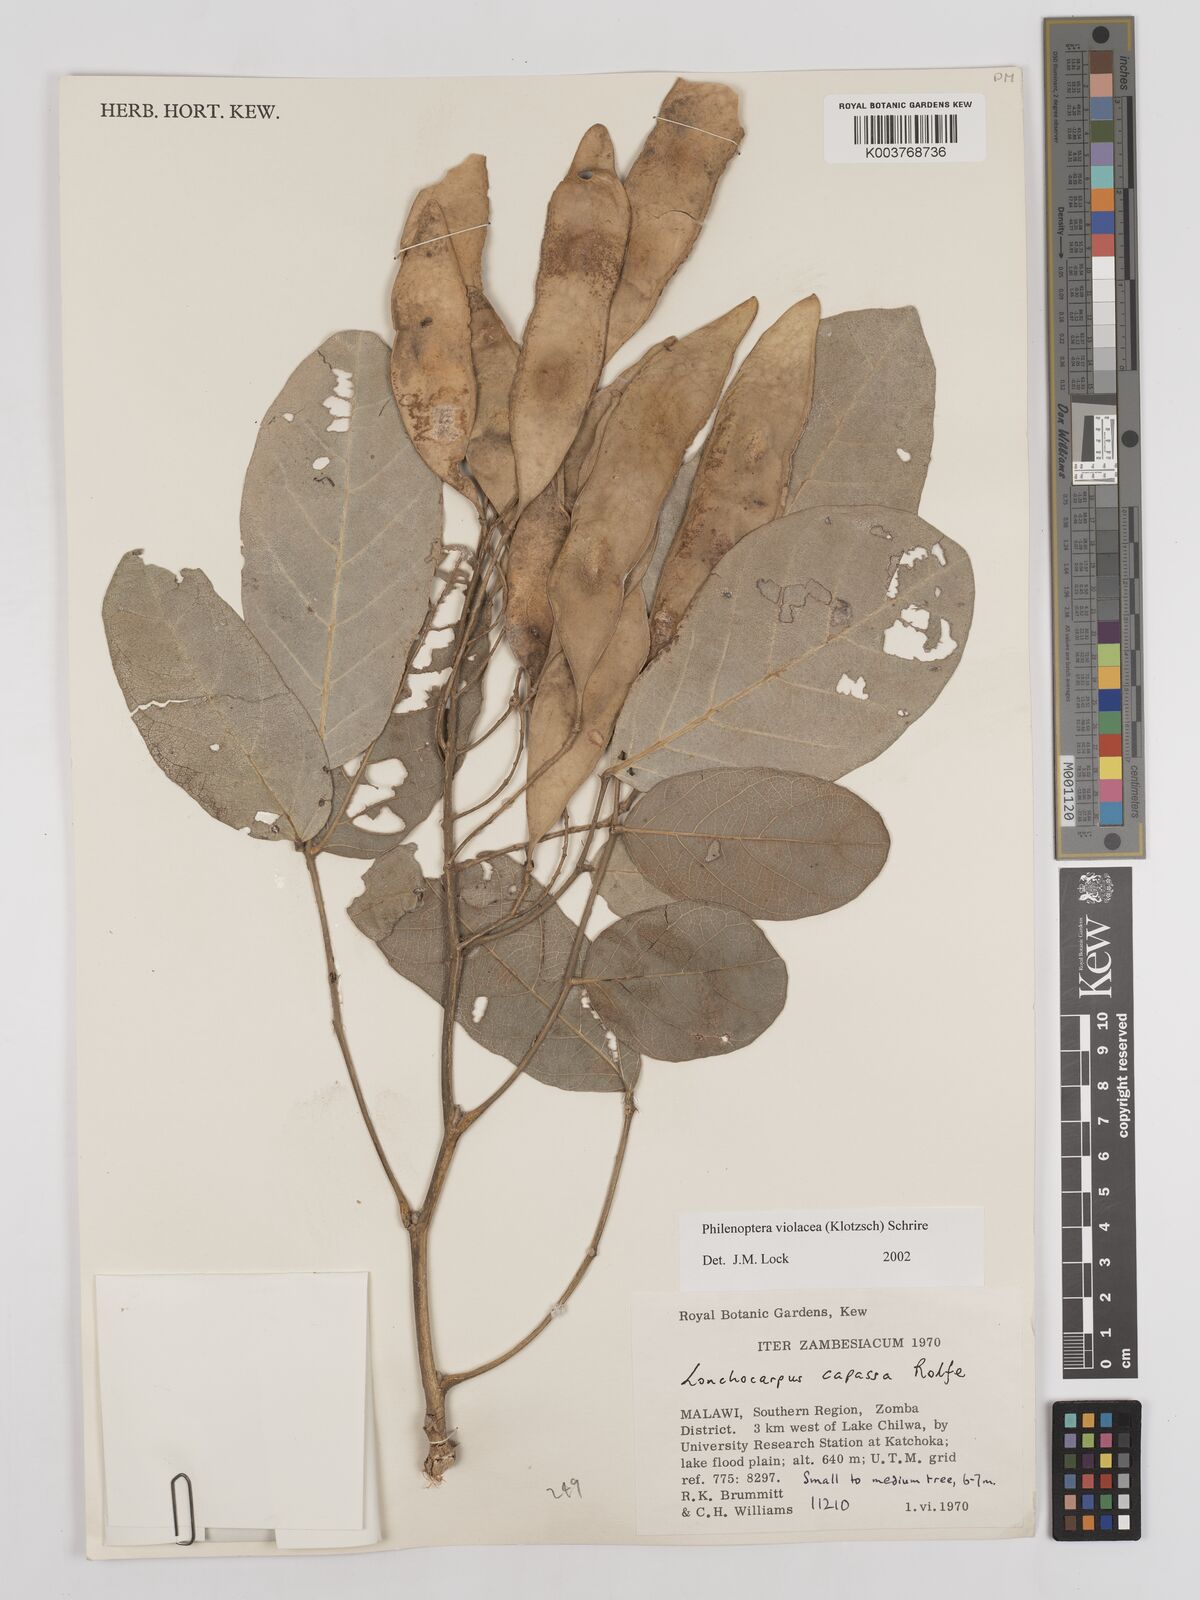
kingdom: Plantae
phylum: Tracheophyta
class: Magnoliopsida
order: Fabales
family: Fabaceae
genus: Philenoptera
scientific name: Philenoptera violacea
